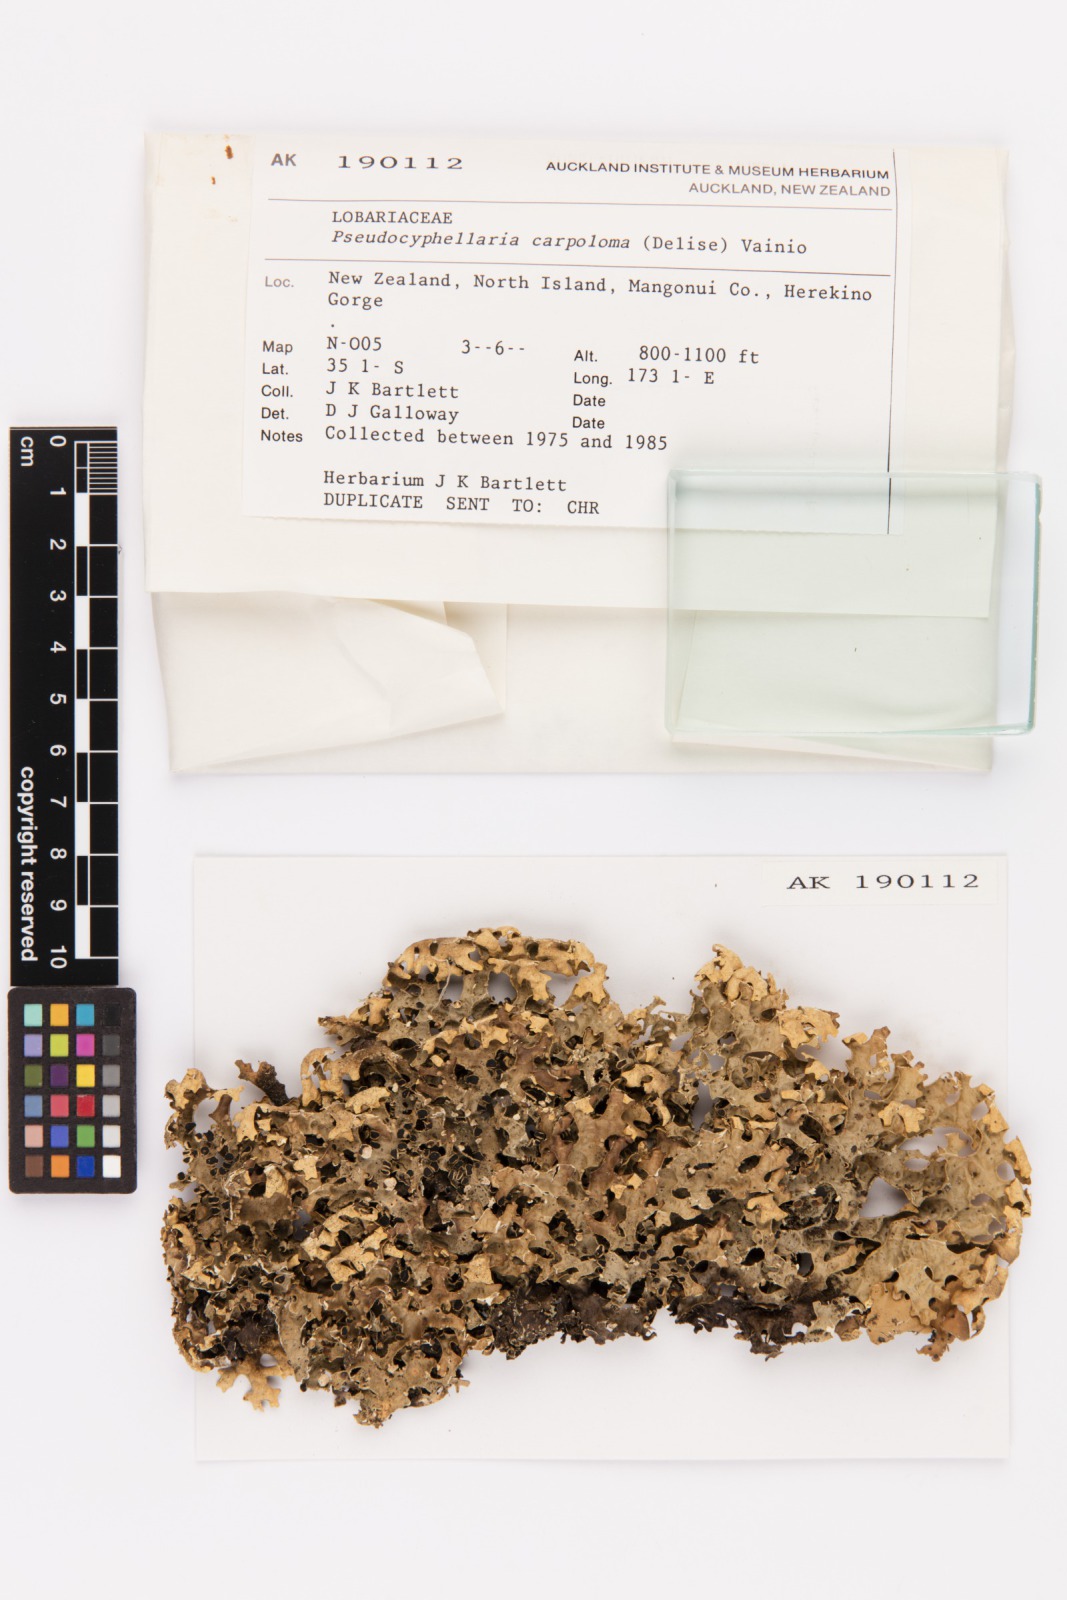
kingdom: Fungi
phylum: Ascomycota
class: Lecanoromycetes
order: Peltigerales
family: Lobariaceae
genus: Pseudocyphellaria
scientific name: Pseudocyphellaria carpoloma
